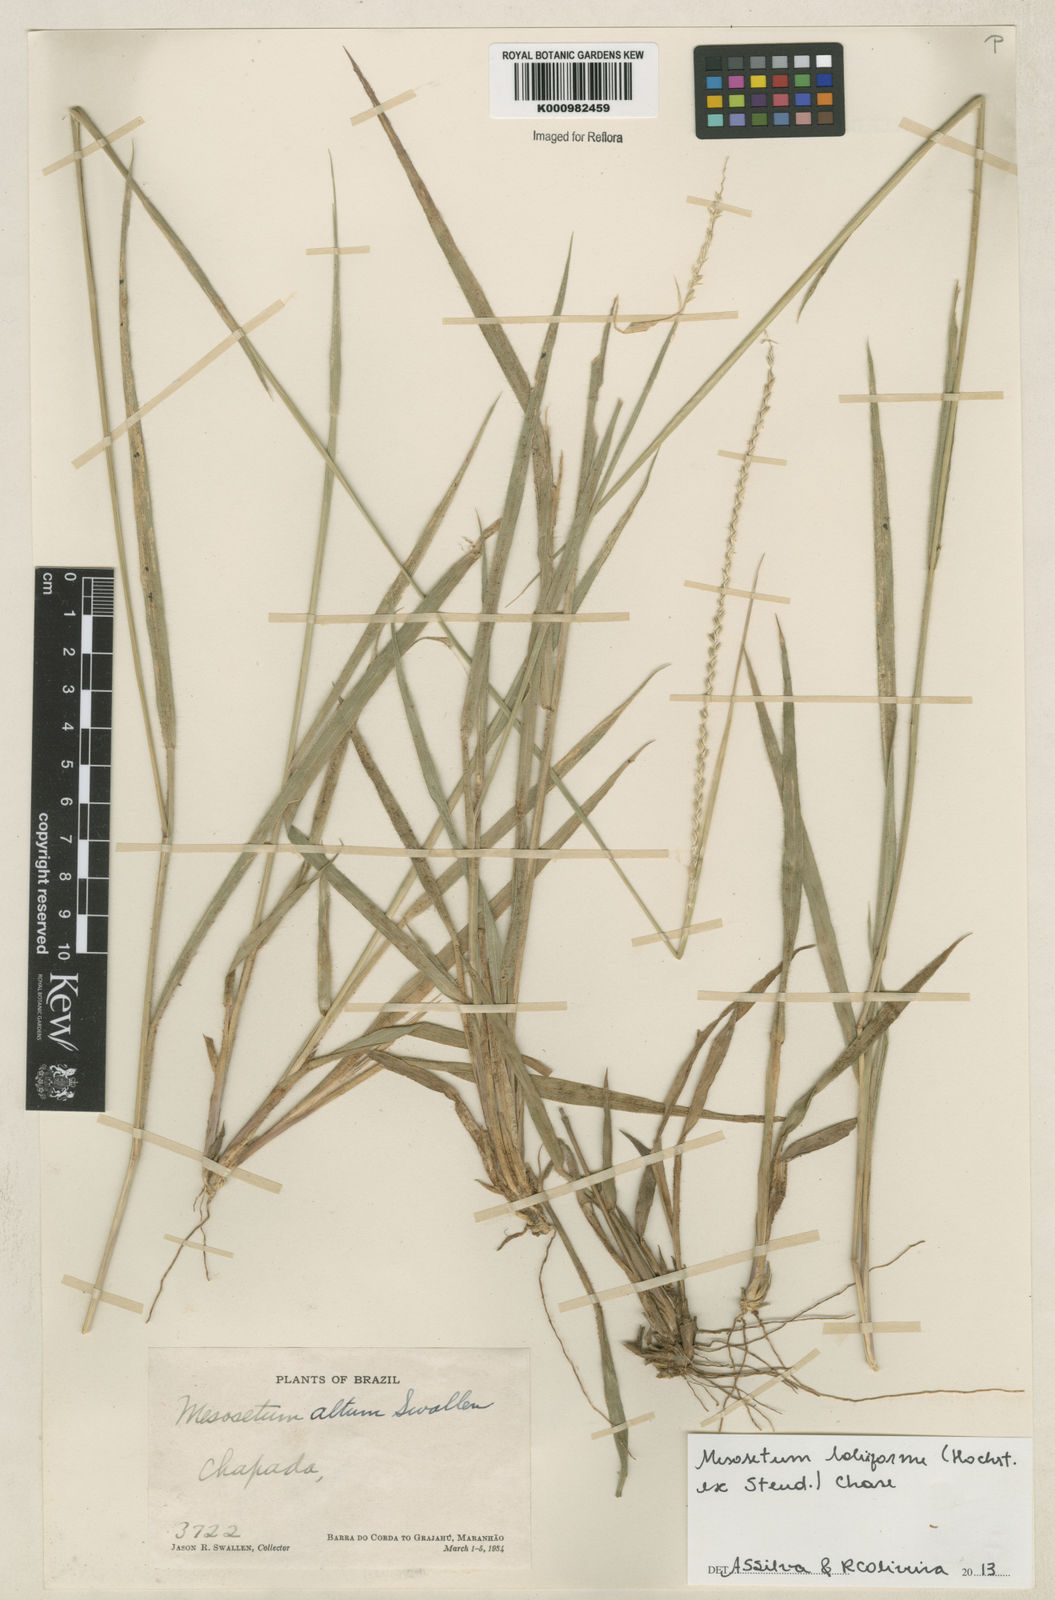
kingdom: Plantae
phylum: Tracheophyta
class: Liliopsida
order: Poales
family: Poaceae
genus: Mesosetum
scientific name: Mesosetum
